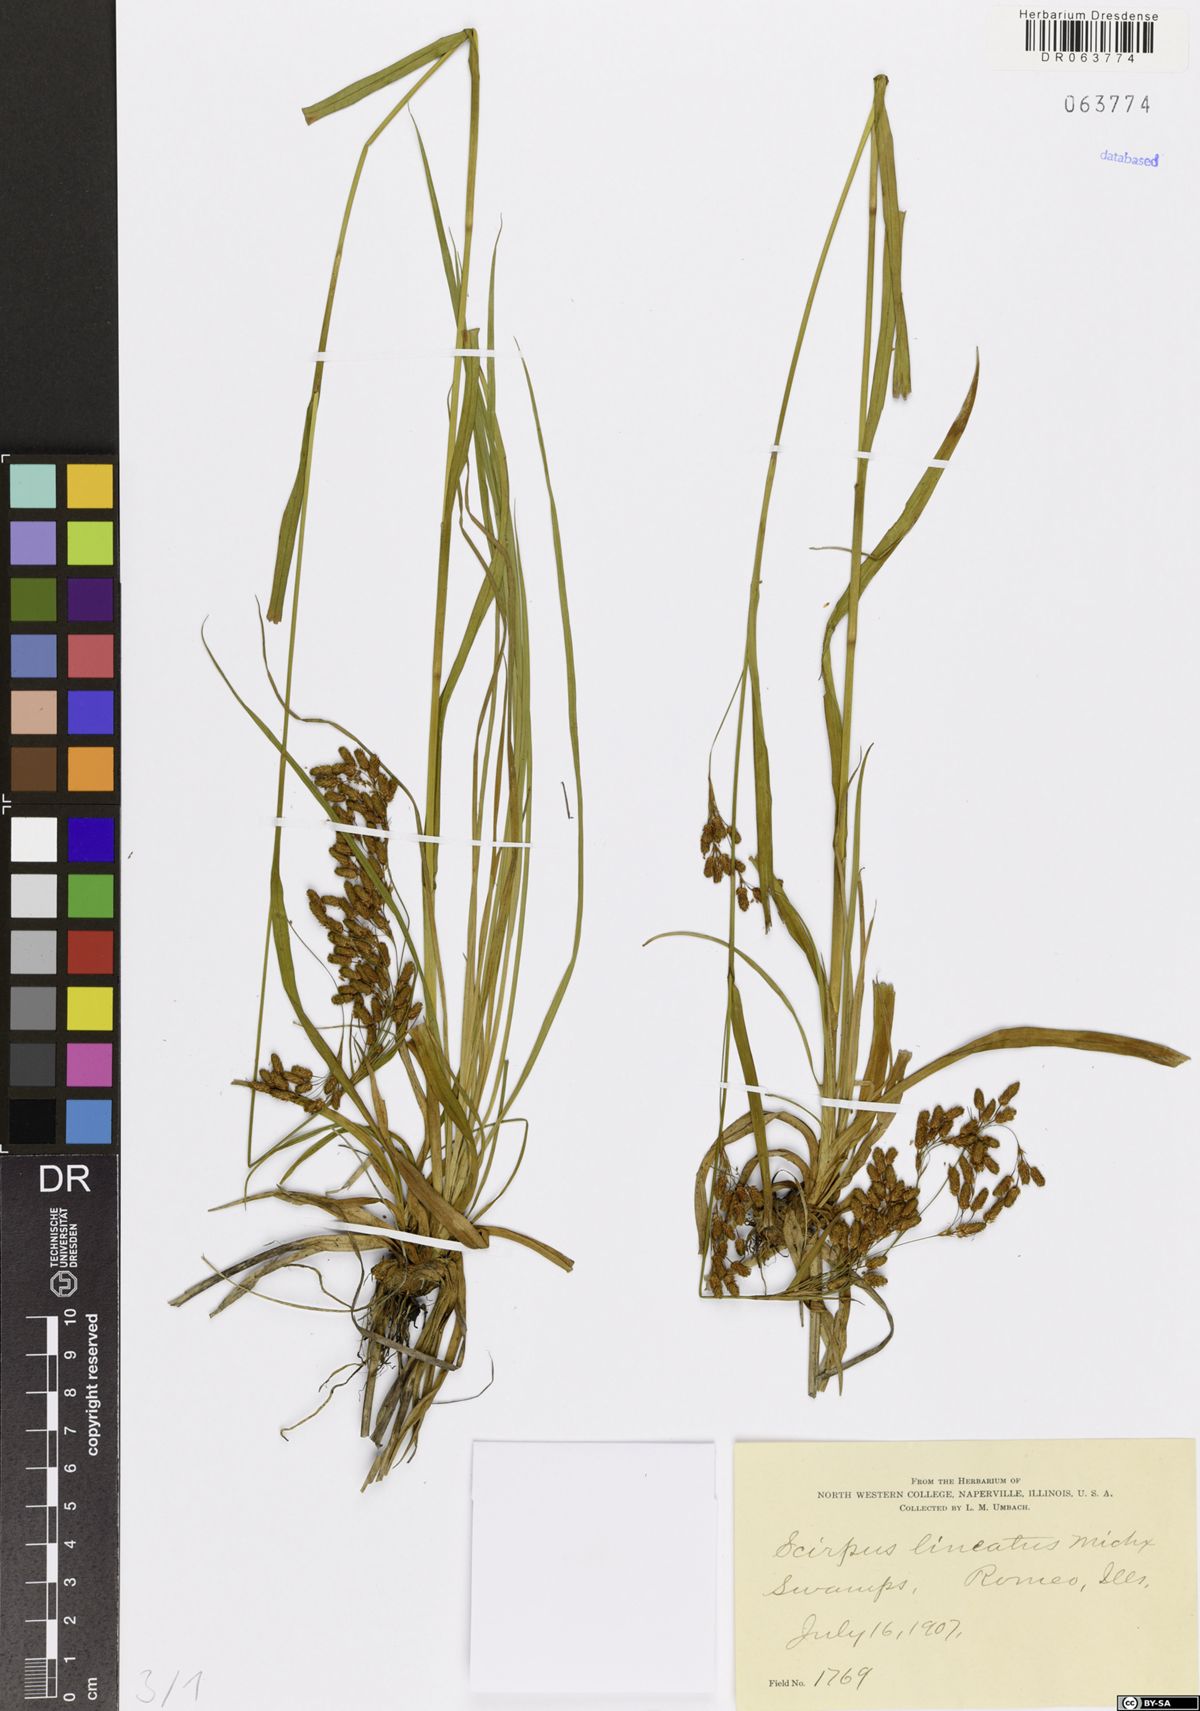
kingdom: Plantae
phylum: Tracheophyta
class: Liliopsida
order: Poales
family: Cyperaceae
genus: Scirpus
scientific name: Scirpus lineatus
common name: Drooping bulrush
